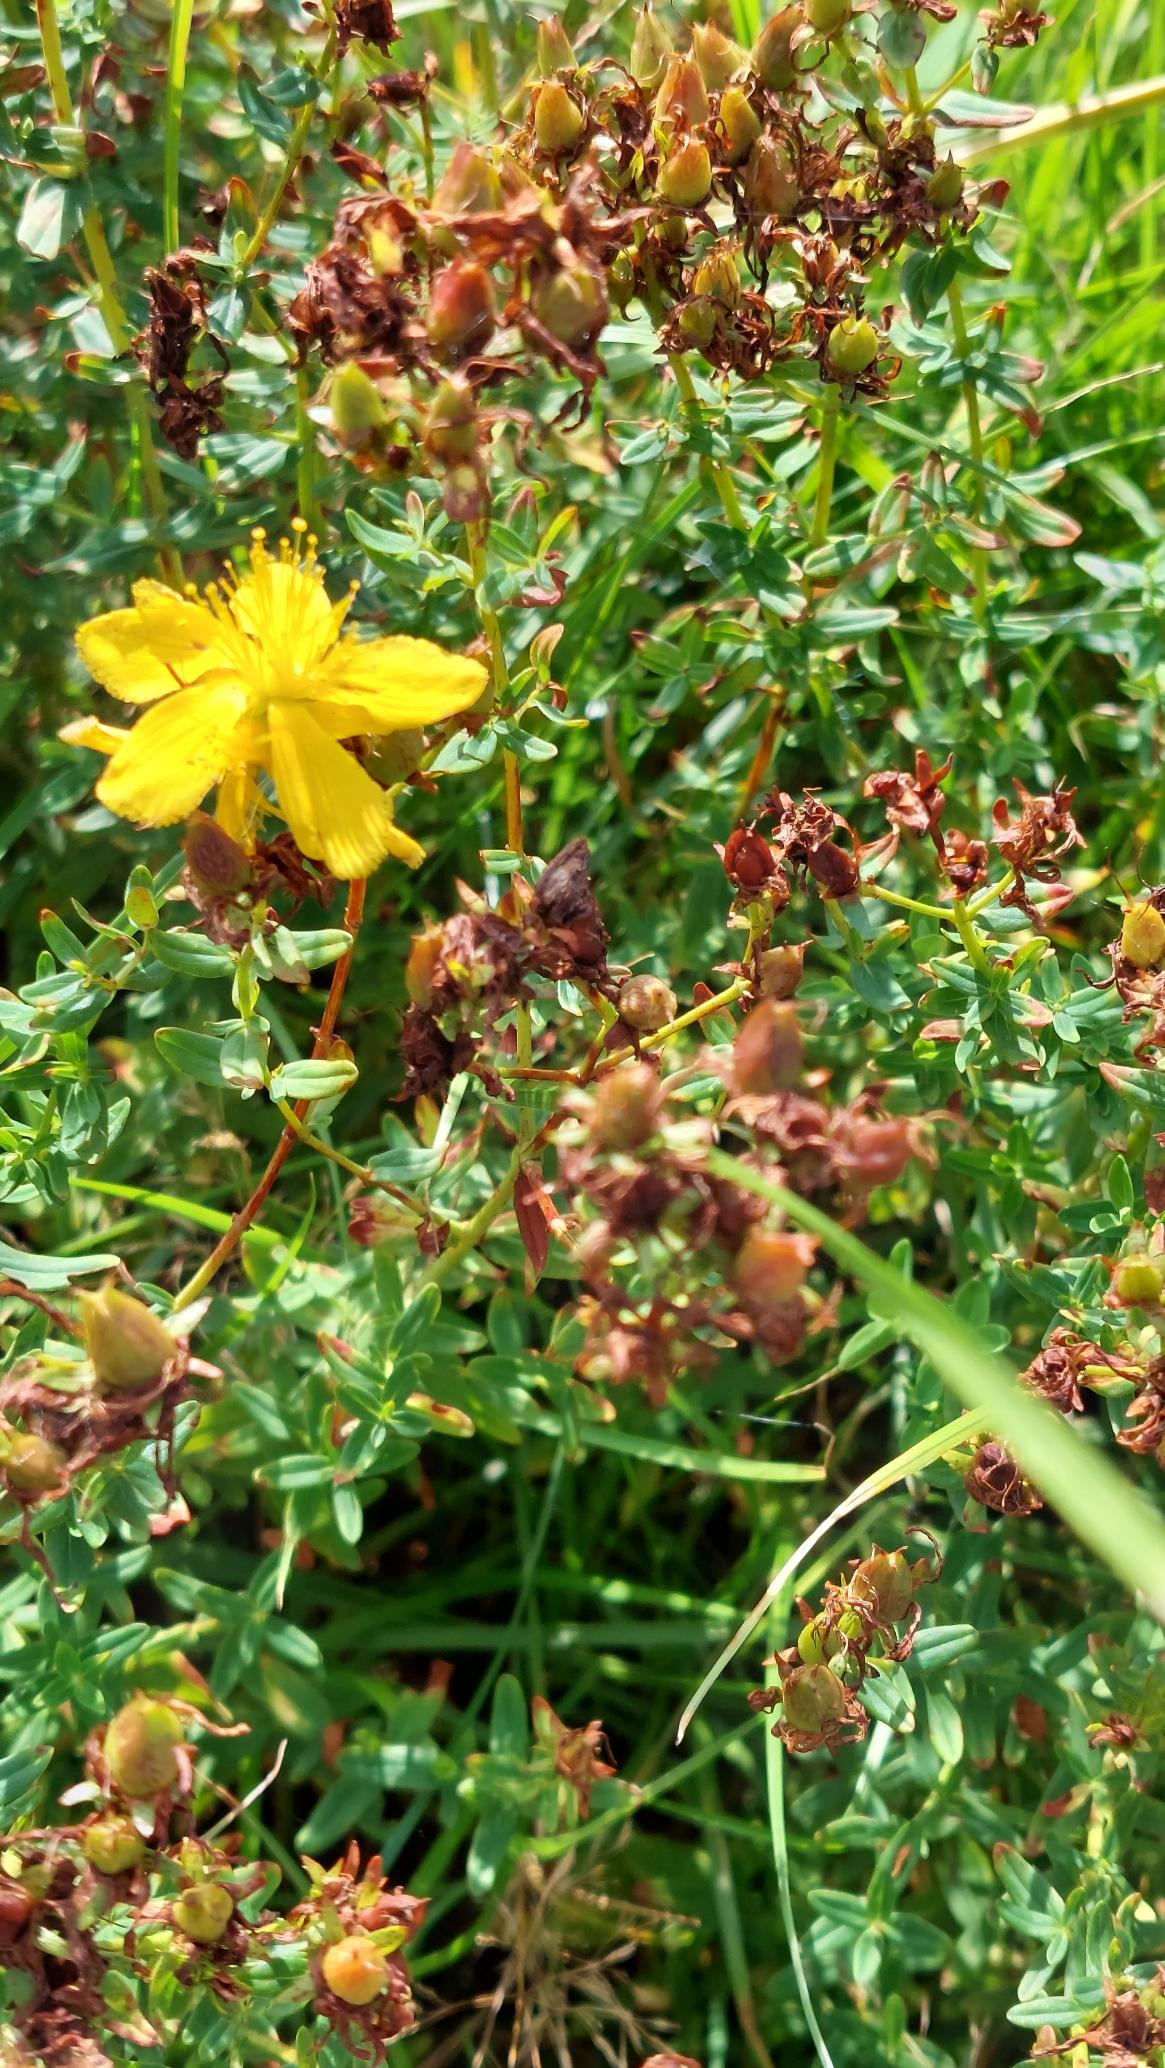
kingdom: Plantae
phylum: Tracheophyta
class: Magnoliopsida
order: Malpighiales
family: Hypericaceae
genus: Hypericum
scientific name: Hypericum perforatum
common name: Prikbladet perikon
